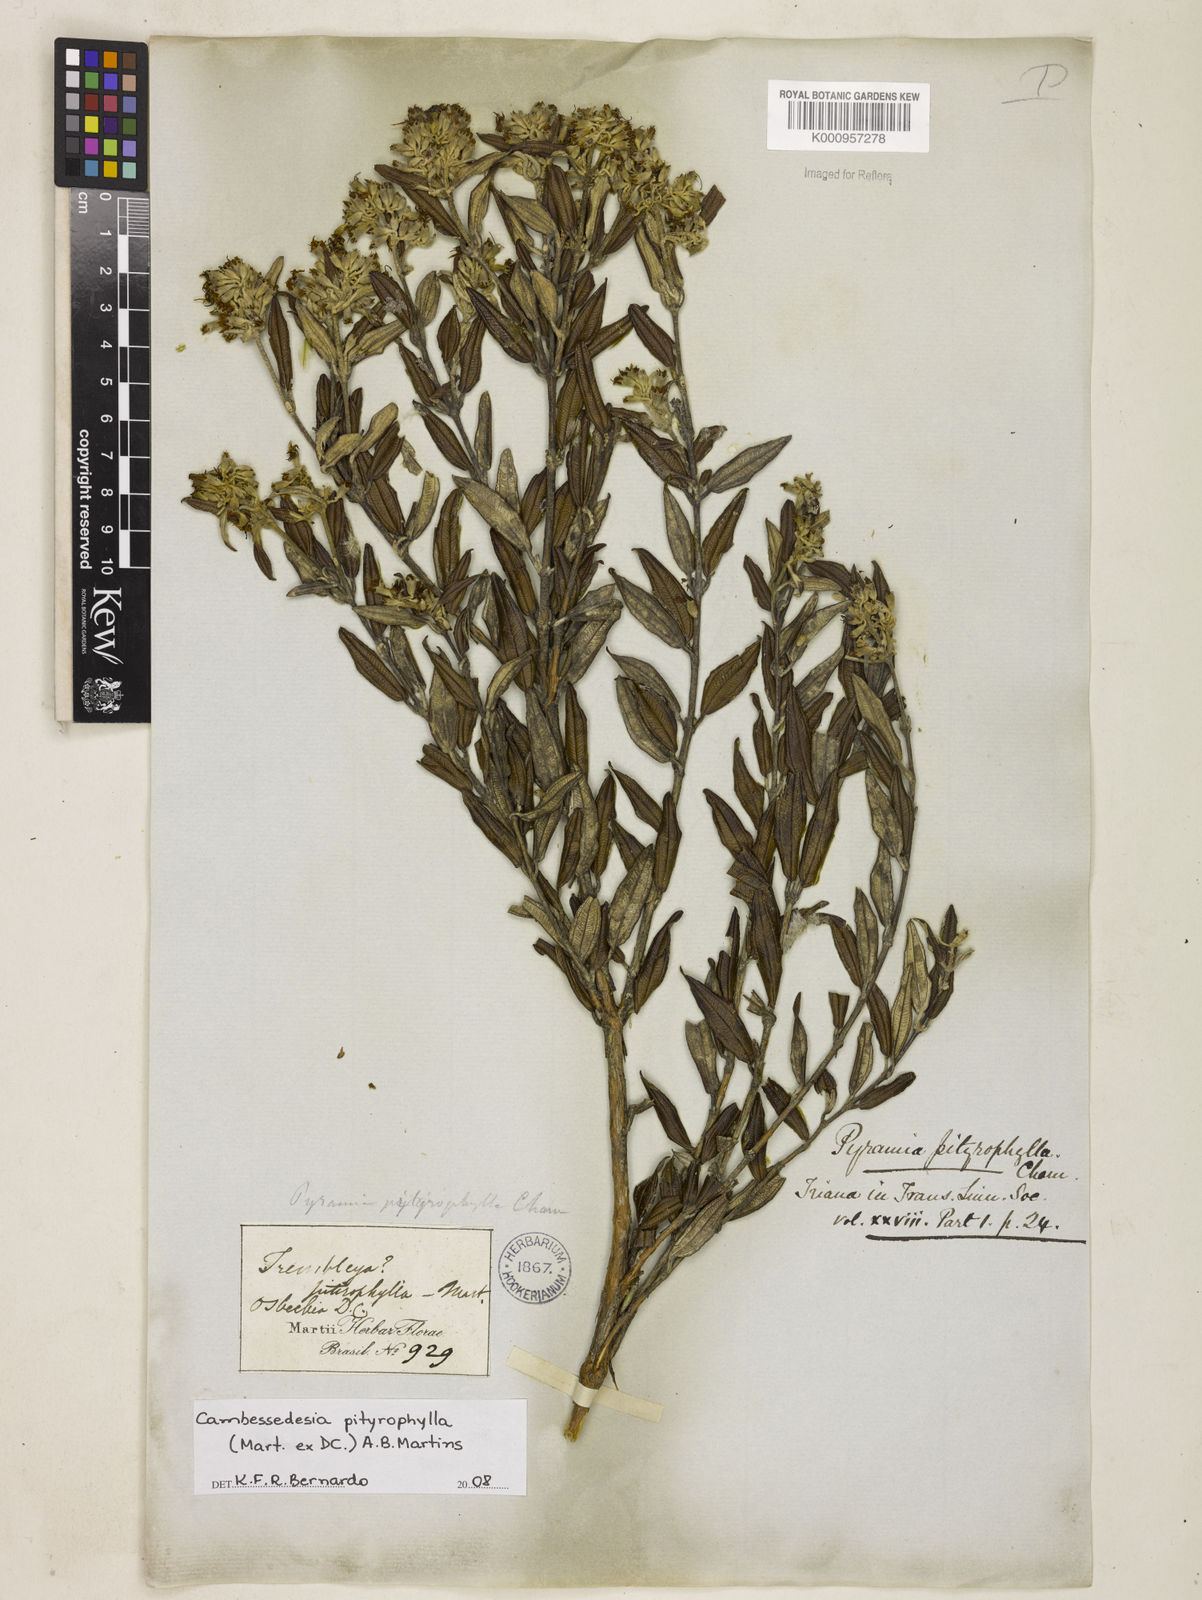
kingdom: Plantae
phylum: Tracheophyta
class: Magnoliopsida
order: Myrtales
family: Melastomataceae
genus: Cambessedesia
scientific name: Cambessedesia pityrophylla
